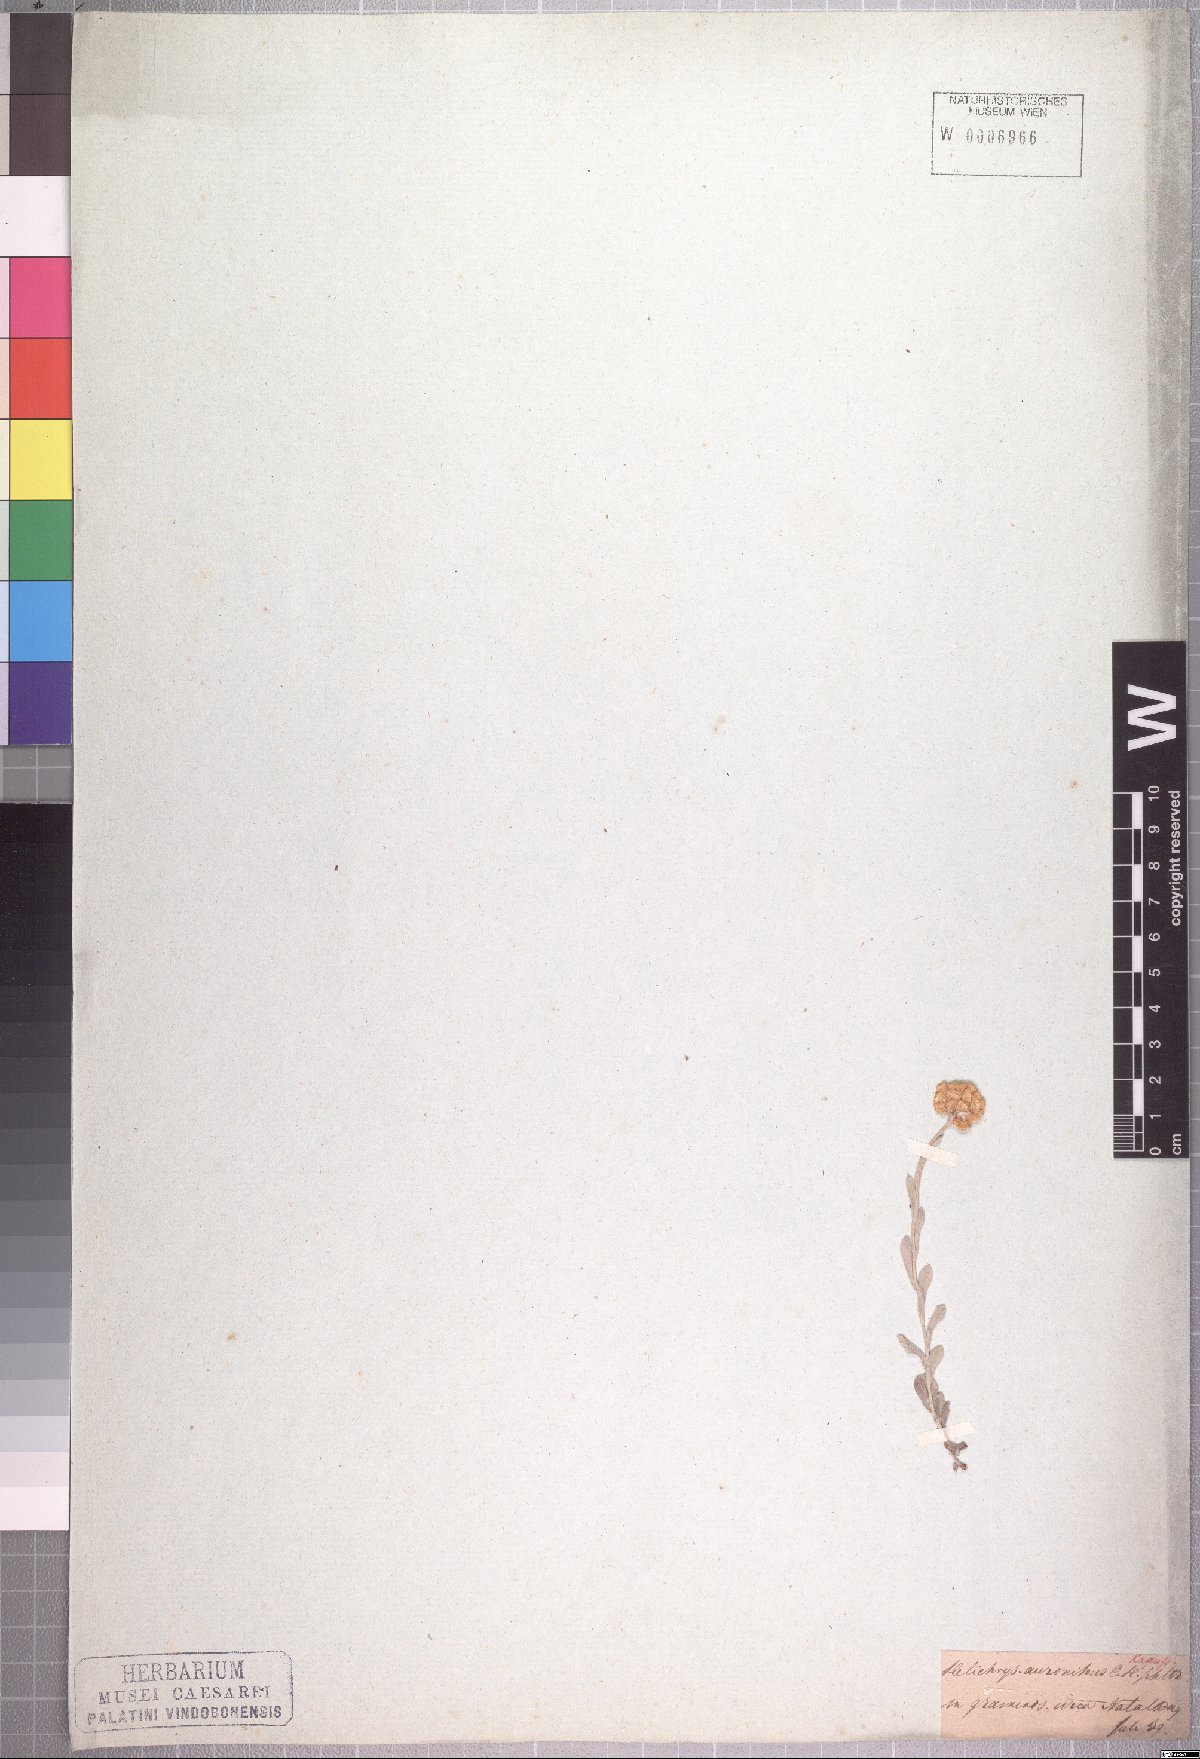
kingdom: Plantae
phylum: Tracheophyta
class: Magnoliopsida
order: Asterales
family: Asteraceae
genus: Helichrysum
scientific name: Helichrysum auronitens
